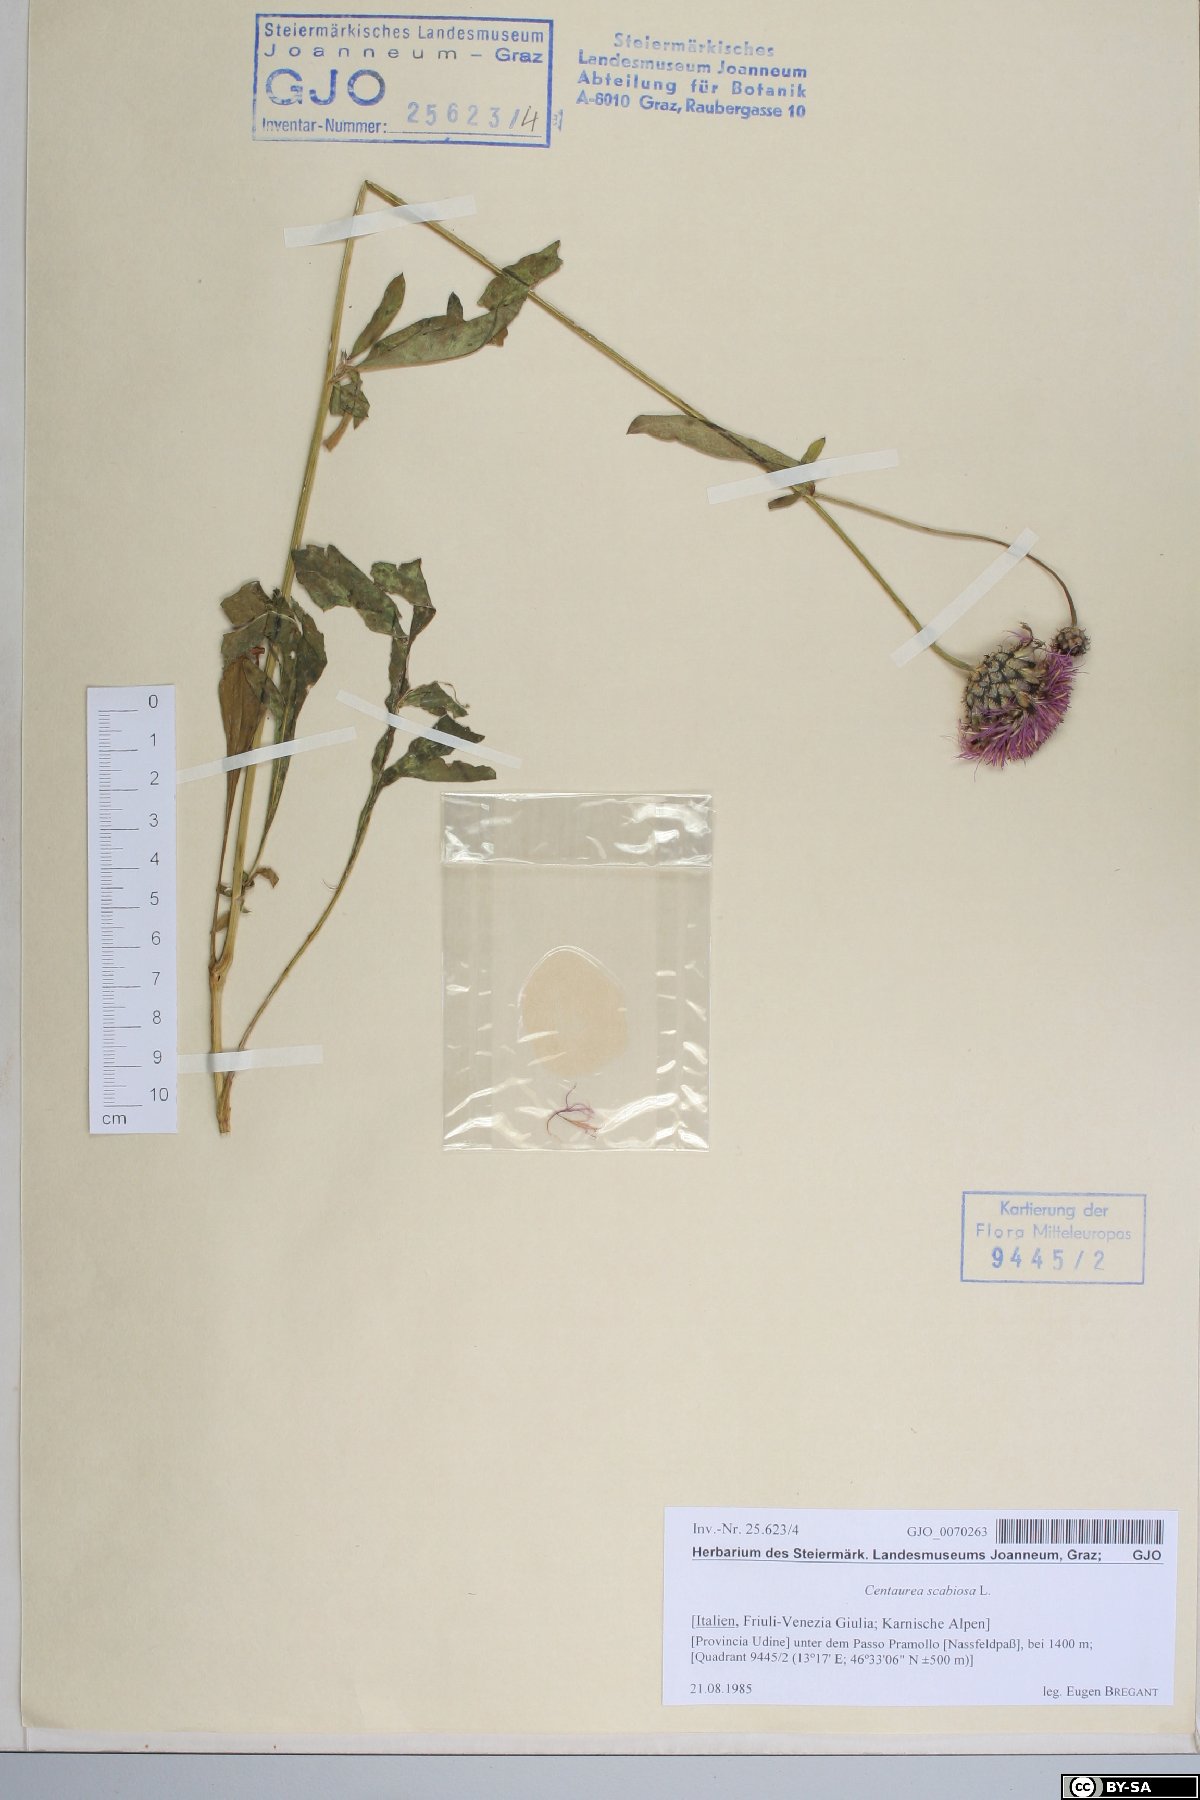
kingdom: Plantae
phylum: Tracheophyta
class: Magnoliopsida
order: Asterales
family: Asteraceae
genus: Centaurea
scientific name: Centaurea scabiosa
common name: Greater knapweed
